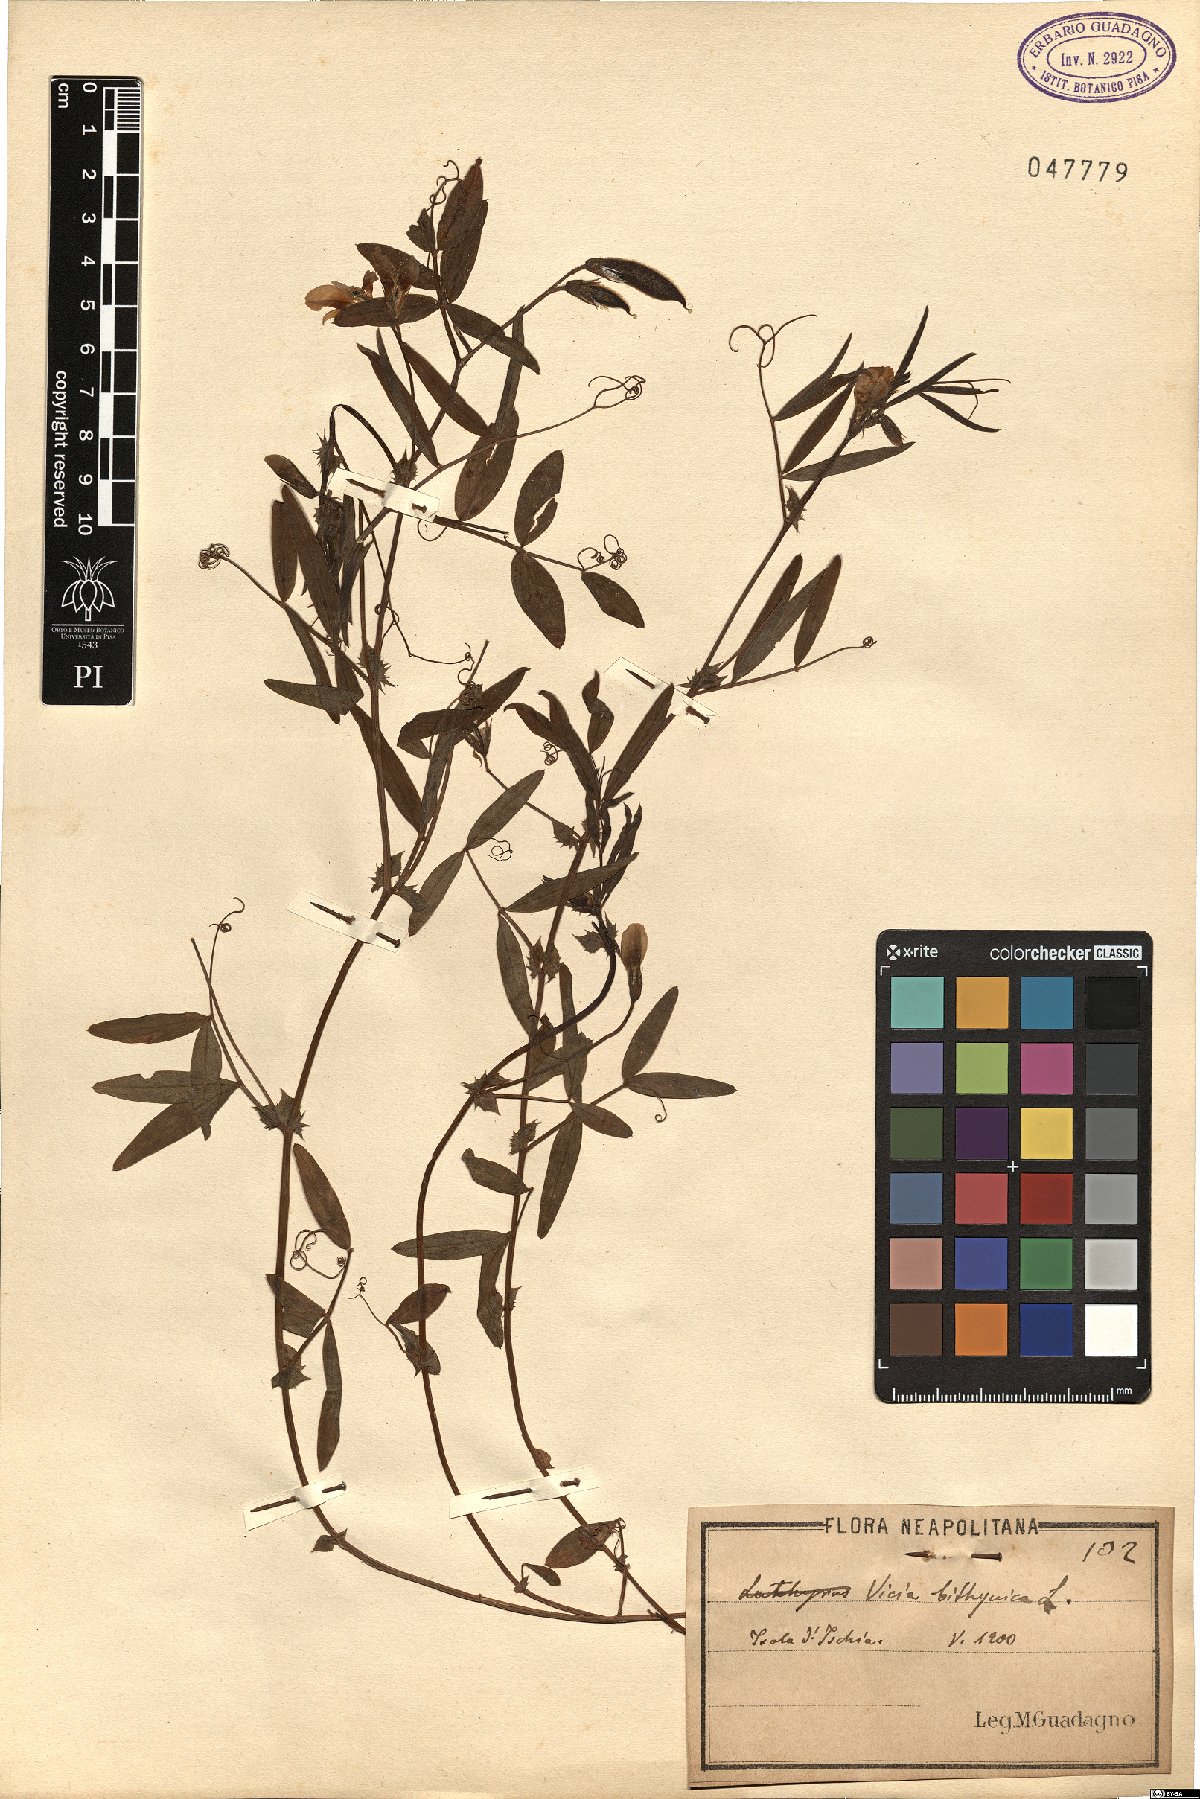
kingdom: Plantae
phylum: Tracheophyta
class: Magnoliopsida
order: Fabales
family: Fabaceae
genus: Vicia
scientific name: Vicia bithynica
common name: Bithynian vetch
